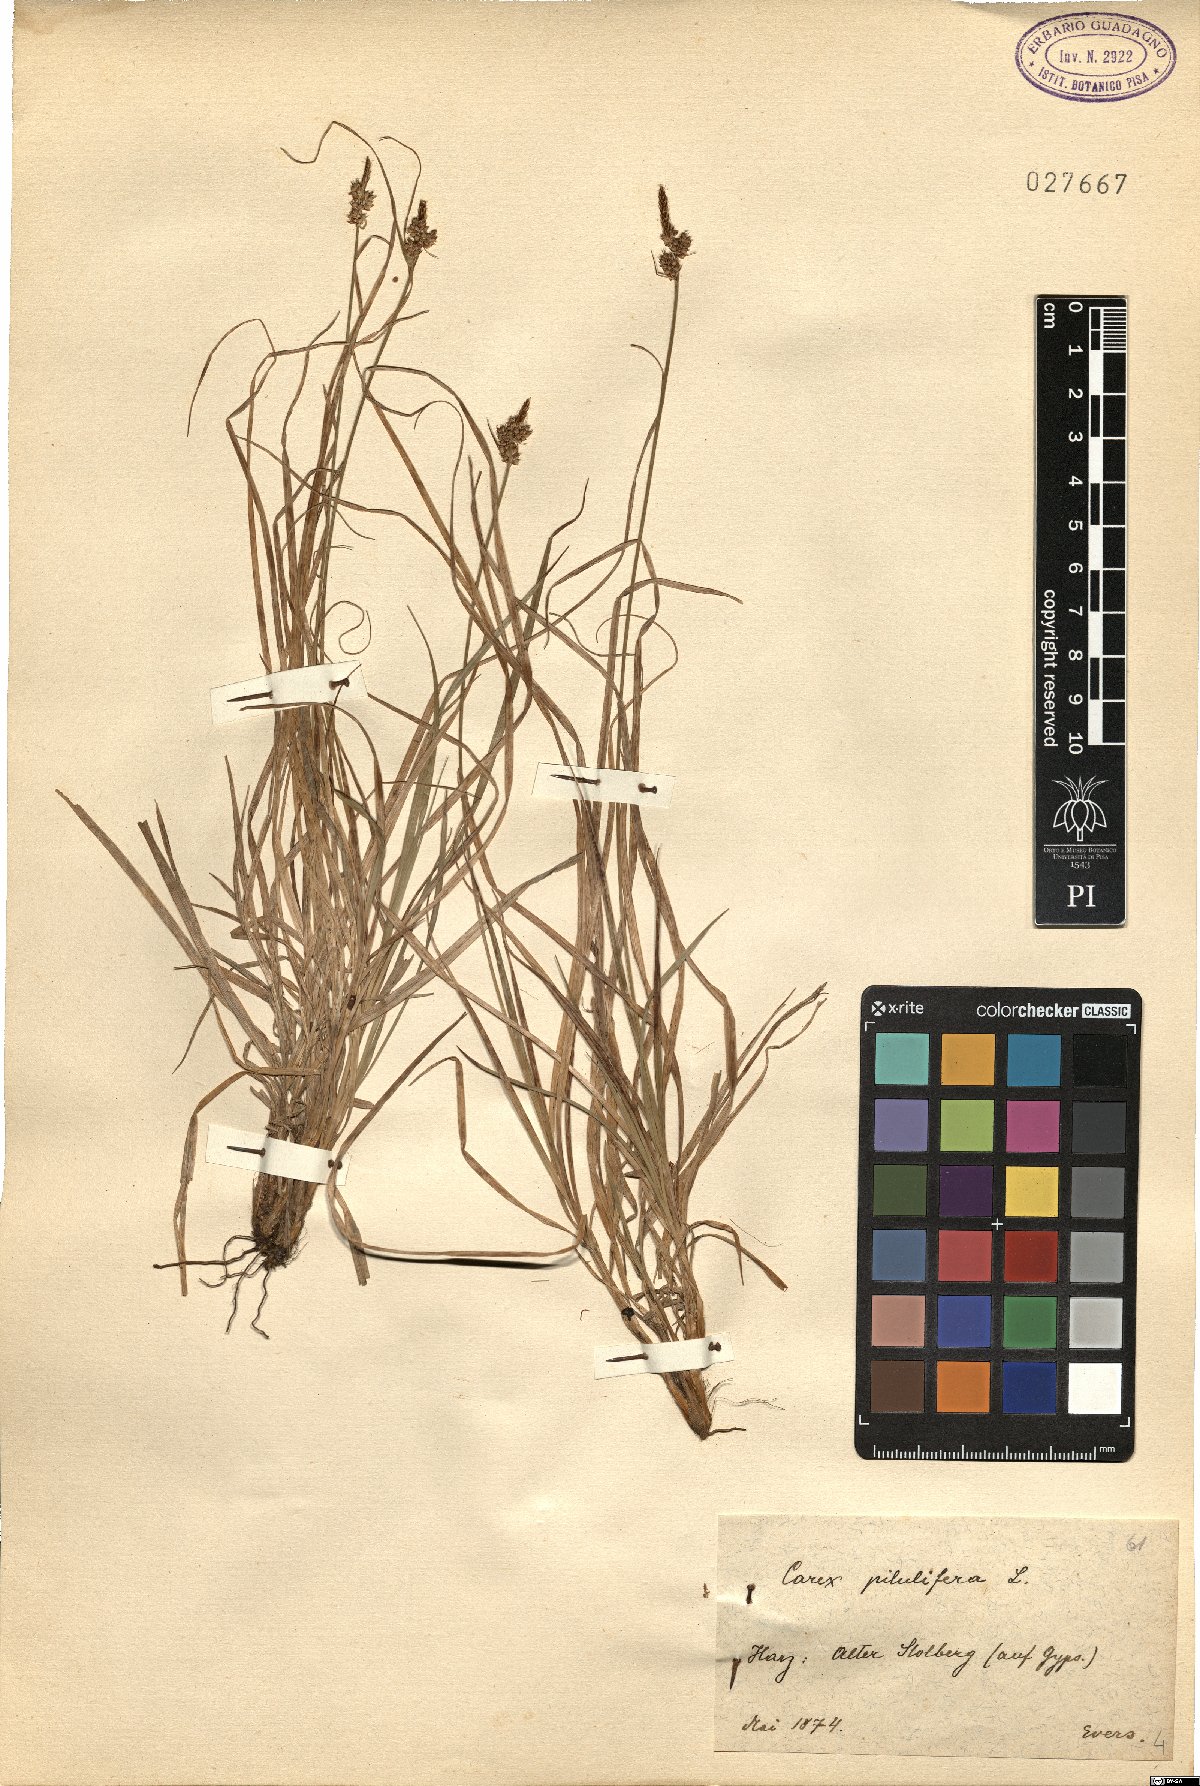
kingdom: Plantae
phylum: Tracheophyta
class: Liliopsida
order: Poales
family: Cyperaceae
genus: Carex
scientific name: Carex pilulifera
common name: Pill sedge
